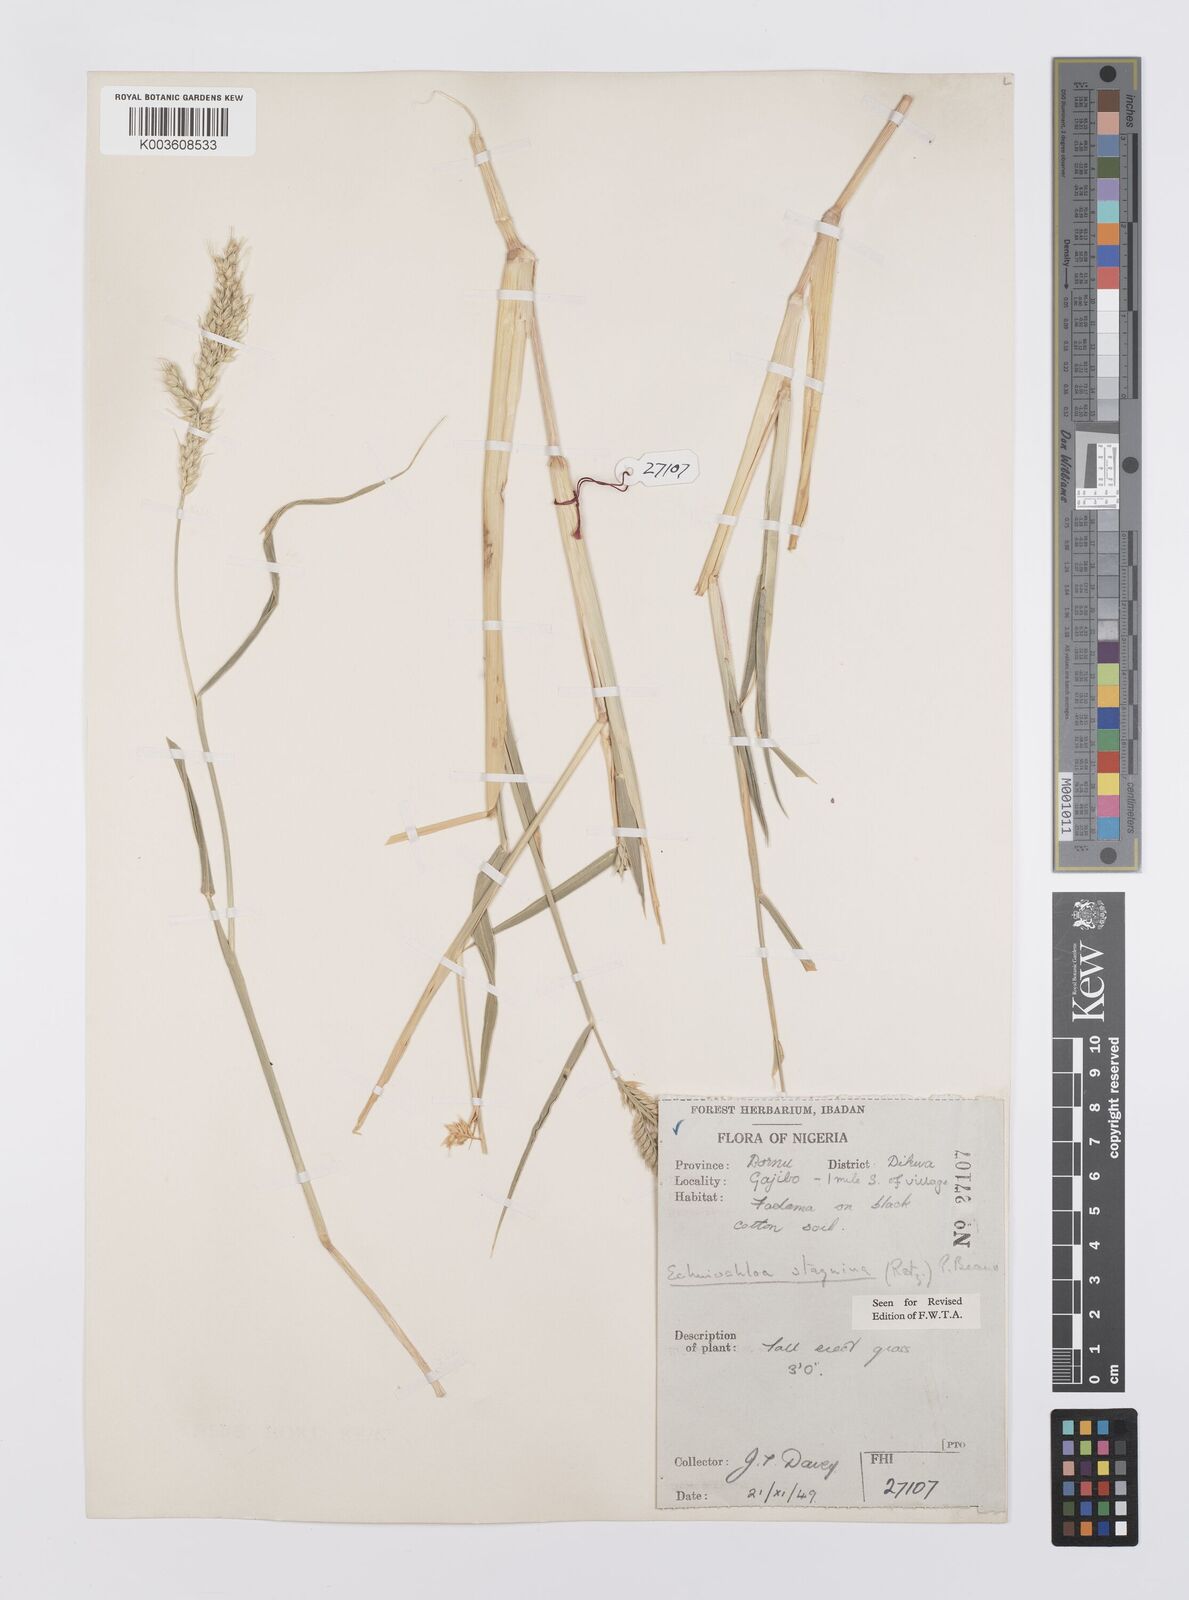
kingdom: Plantae
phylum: Tracheophyta
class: Liliopsida
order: Poales
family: Poaceae
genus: Echinochloa
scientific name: Echinochloa stagnina
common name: Burgu grass
